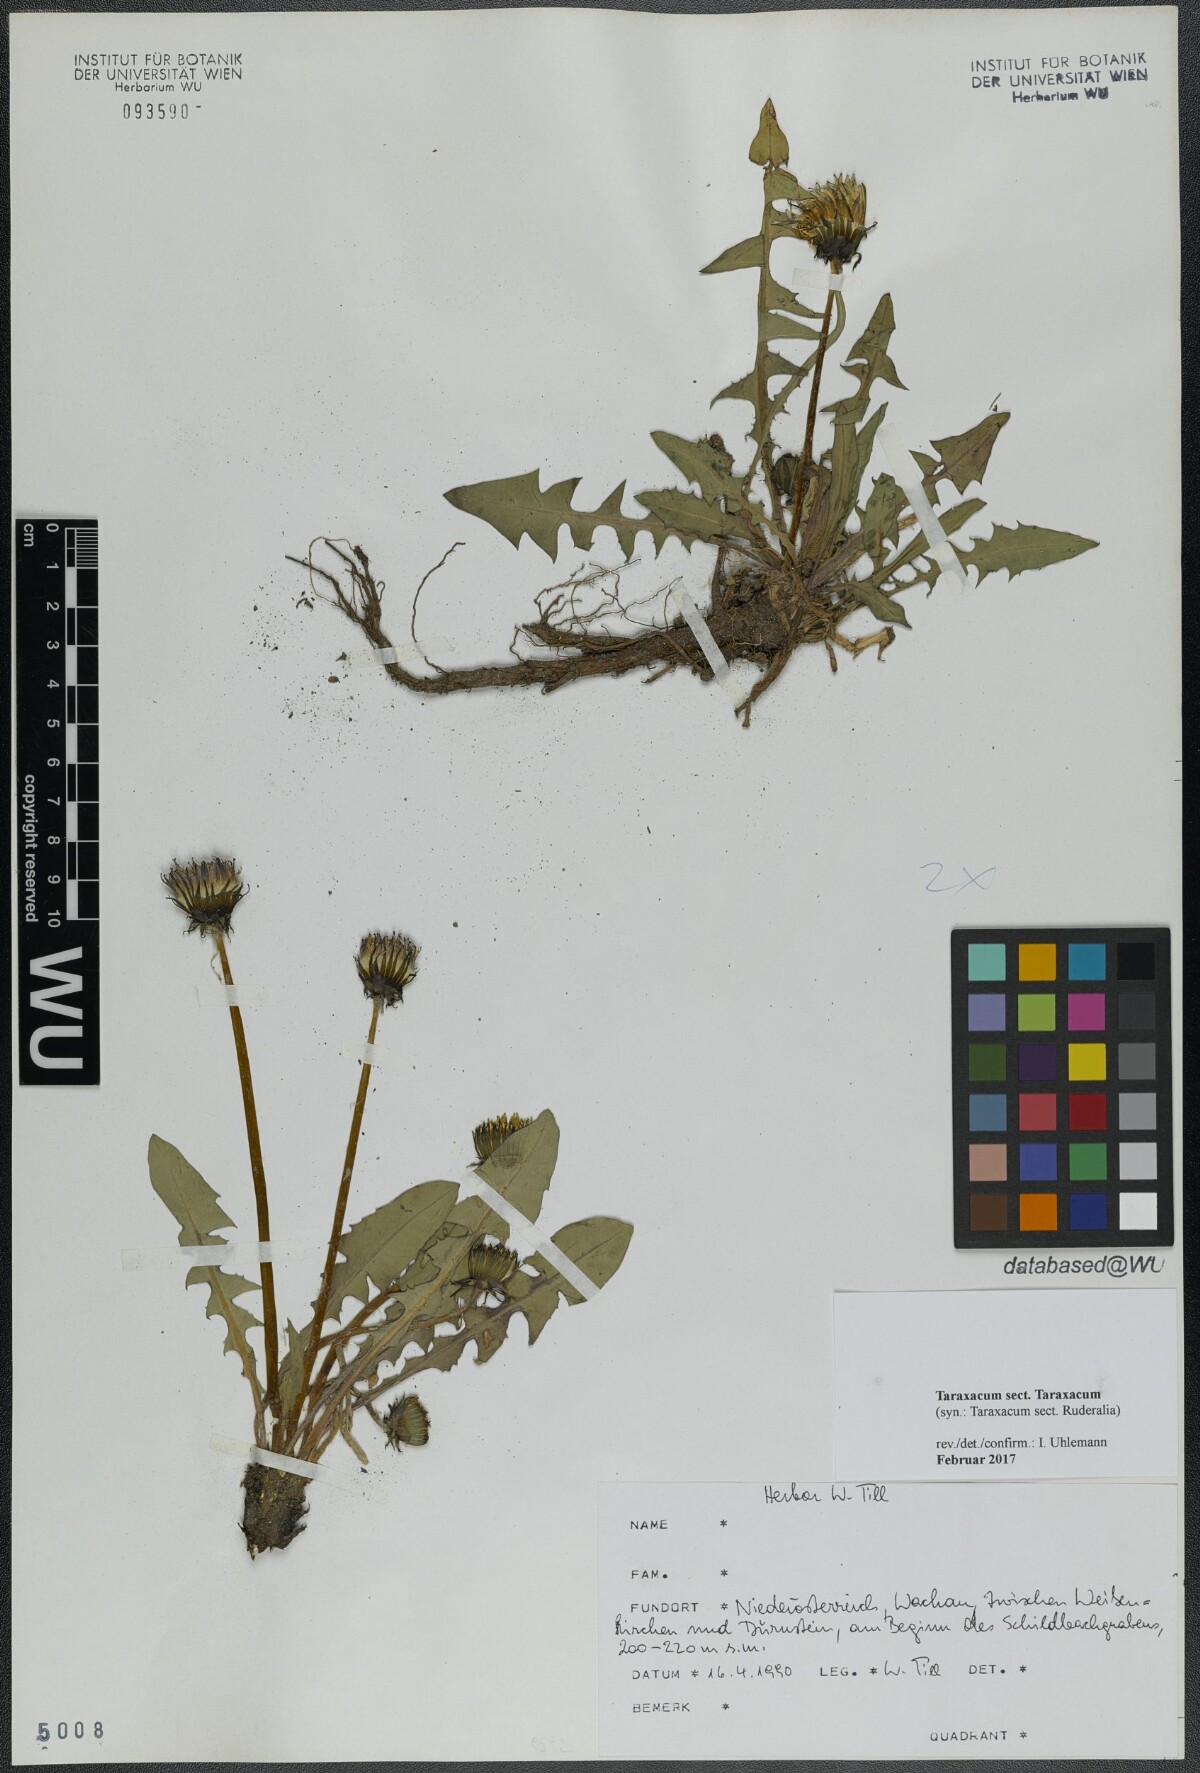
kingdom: Plantae
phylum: Tracheophyta
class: Magnoliopsida
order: Asterales
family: Asteraceae
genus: Taraxacum
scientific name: Taraxacum
